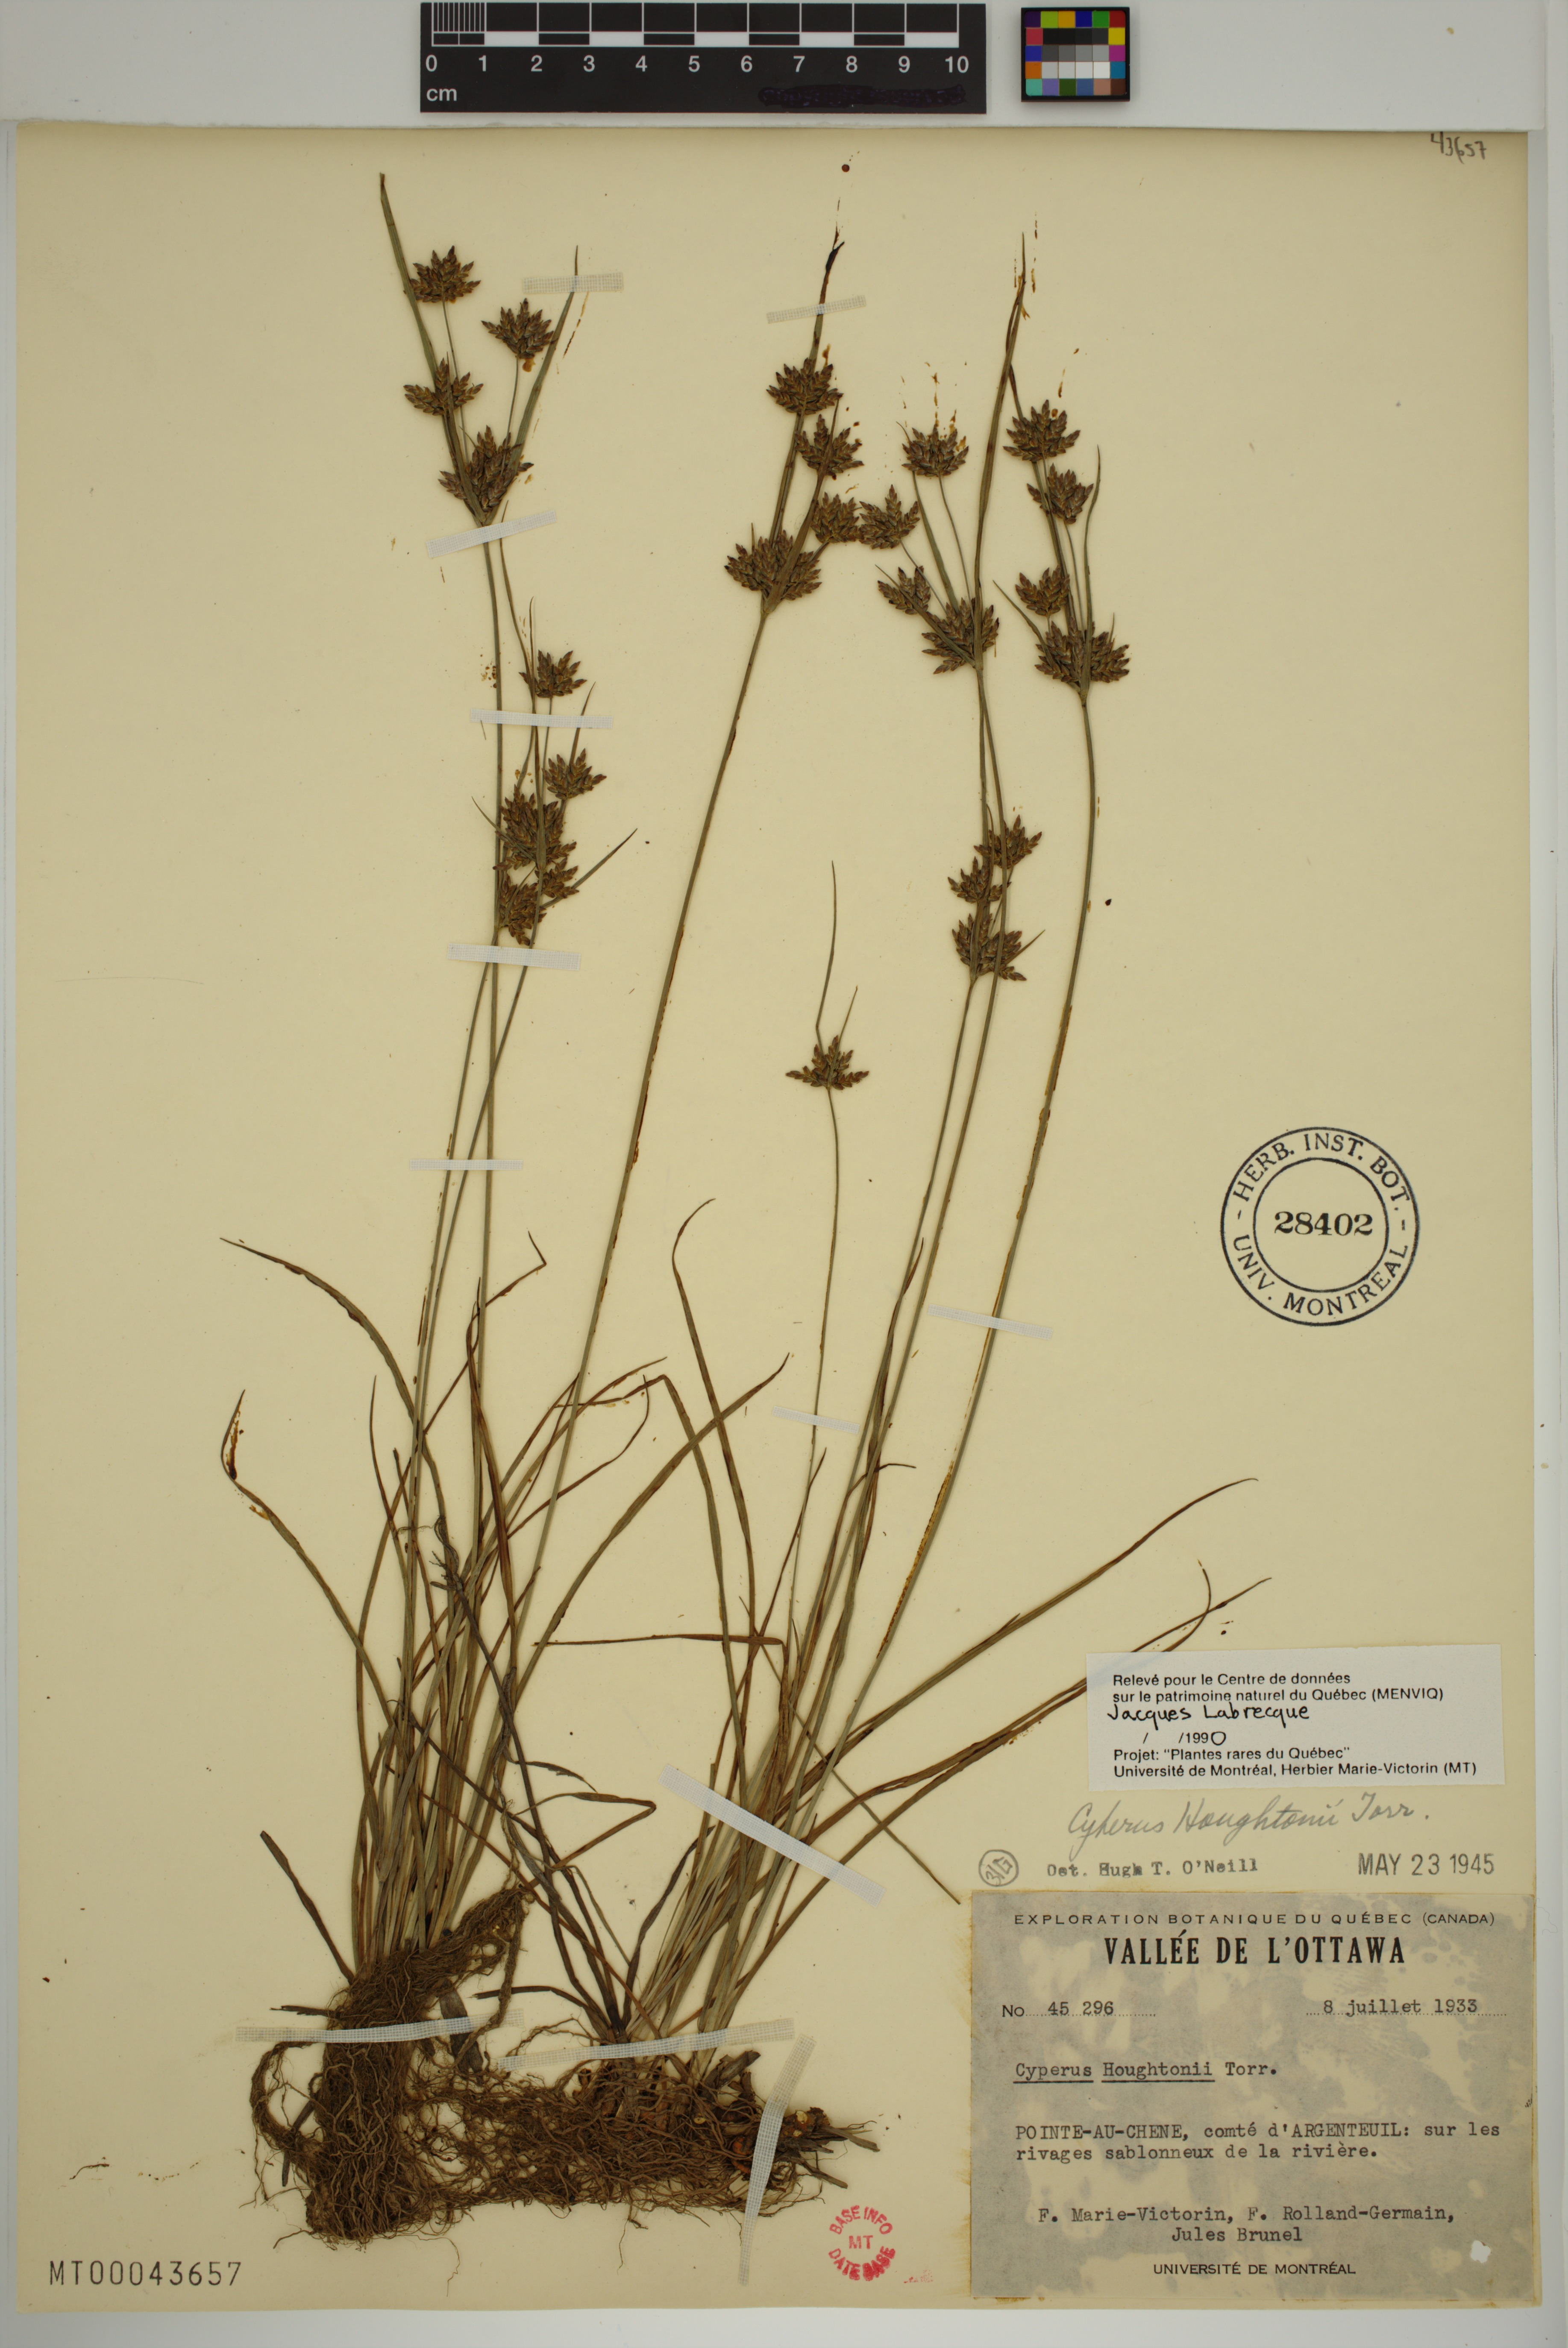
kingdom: Plantae
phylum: Tracheophyta
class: Liliopsida
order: Poales
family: Cyperaceae
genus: Cyperus
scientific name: Cyperus houghtonii
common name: Houghton's cyperus
